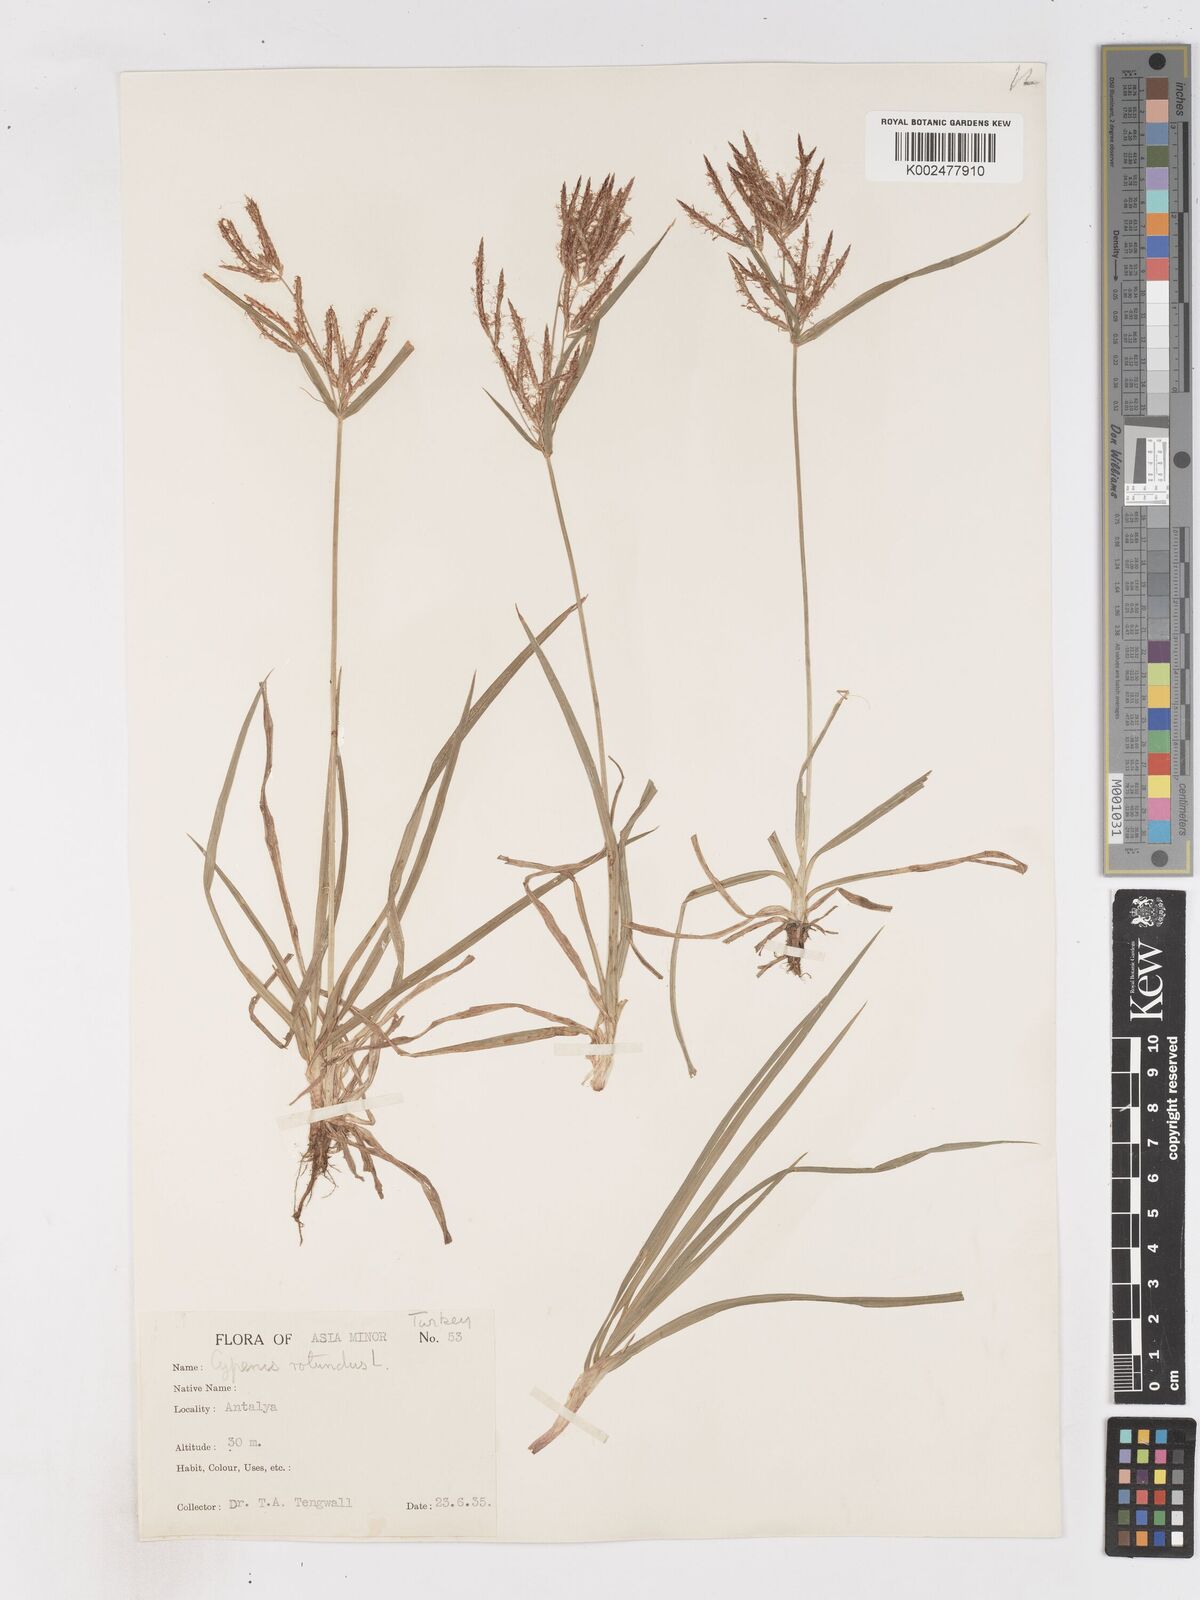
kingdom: Plantae
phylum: Tracheophyta
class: Liliopsida
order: Poales
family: Cyperaceae
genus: Cyperus
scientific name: Cyperus rotundus
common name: Nutgrass
